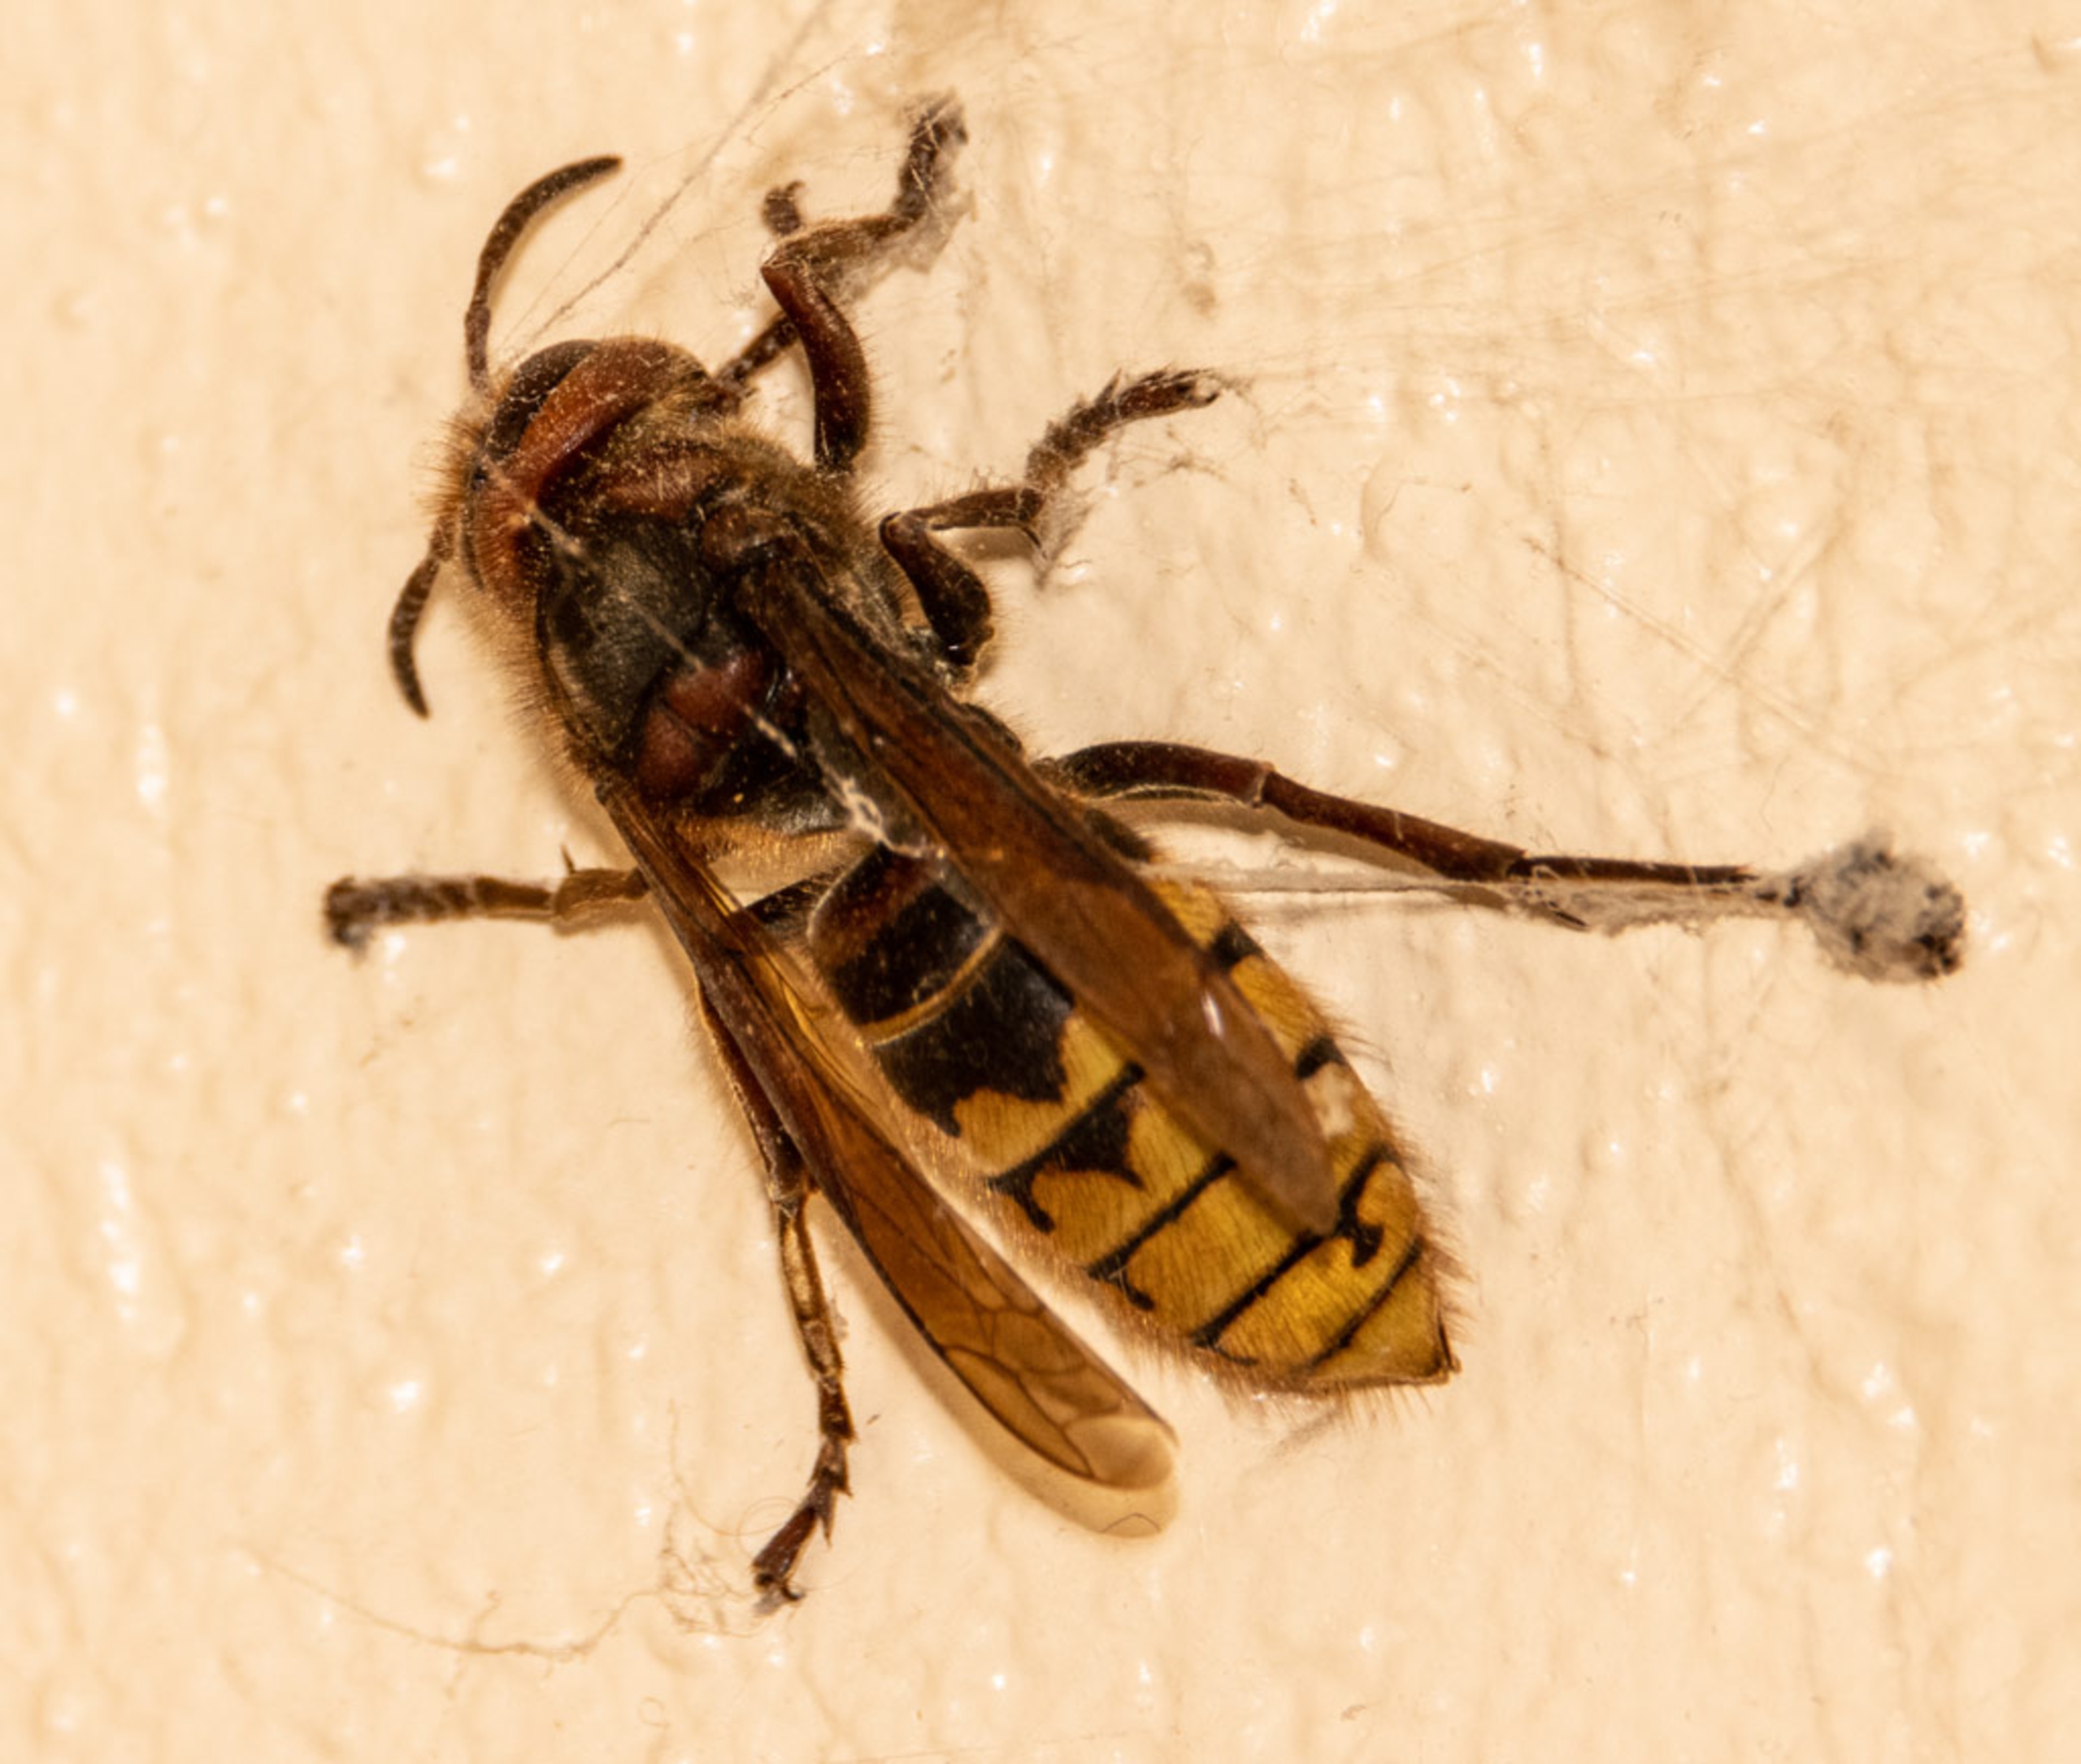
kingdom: Animalia
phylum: Arthropoda
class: Insecta
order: Hymenoptera
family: Vespidae
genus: Vespa
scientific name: Vespa crabro
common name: Stor gedehams
